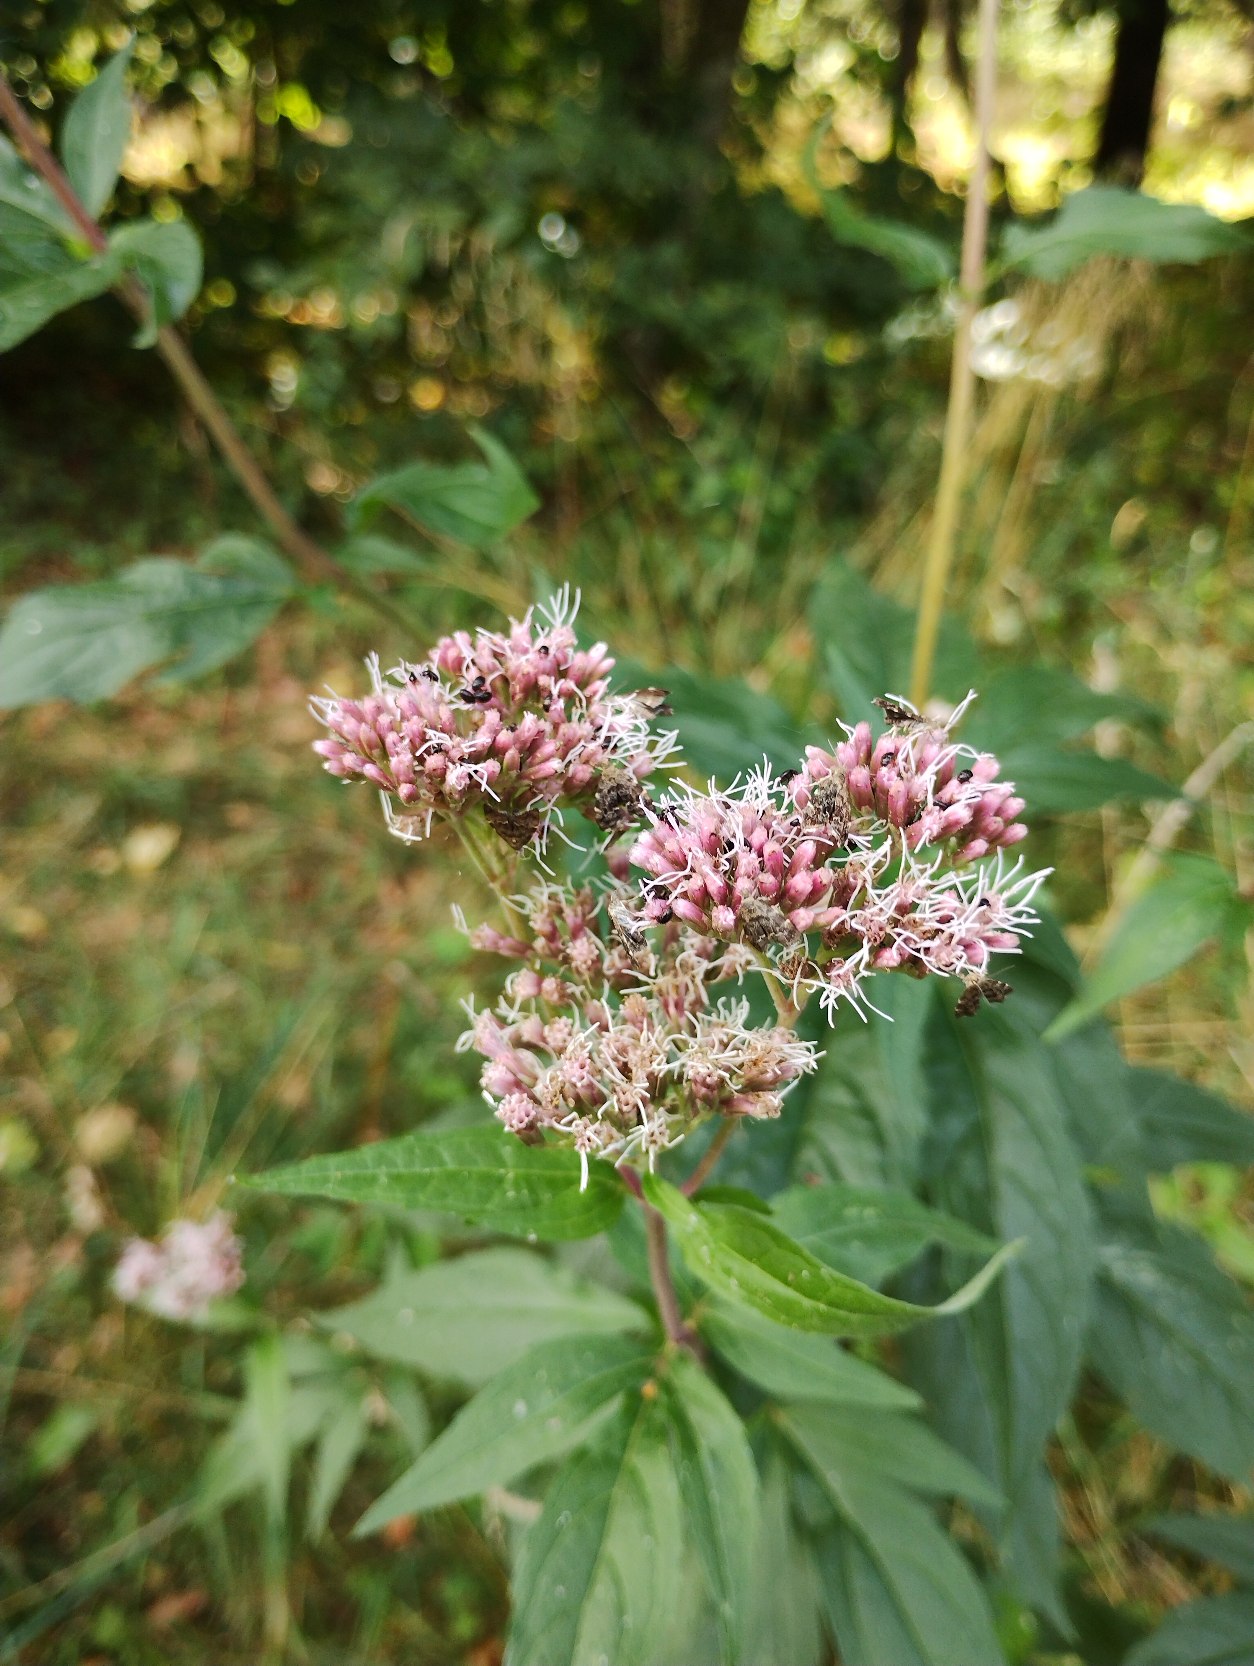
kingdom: Plantae
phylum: Tracheophyta
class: Magnoliopsida
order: Asterales
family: Asteraceae
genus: Eupatorium
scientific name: Eupatorium cannabinum
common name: Hjortetrøst
